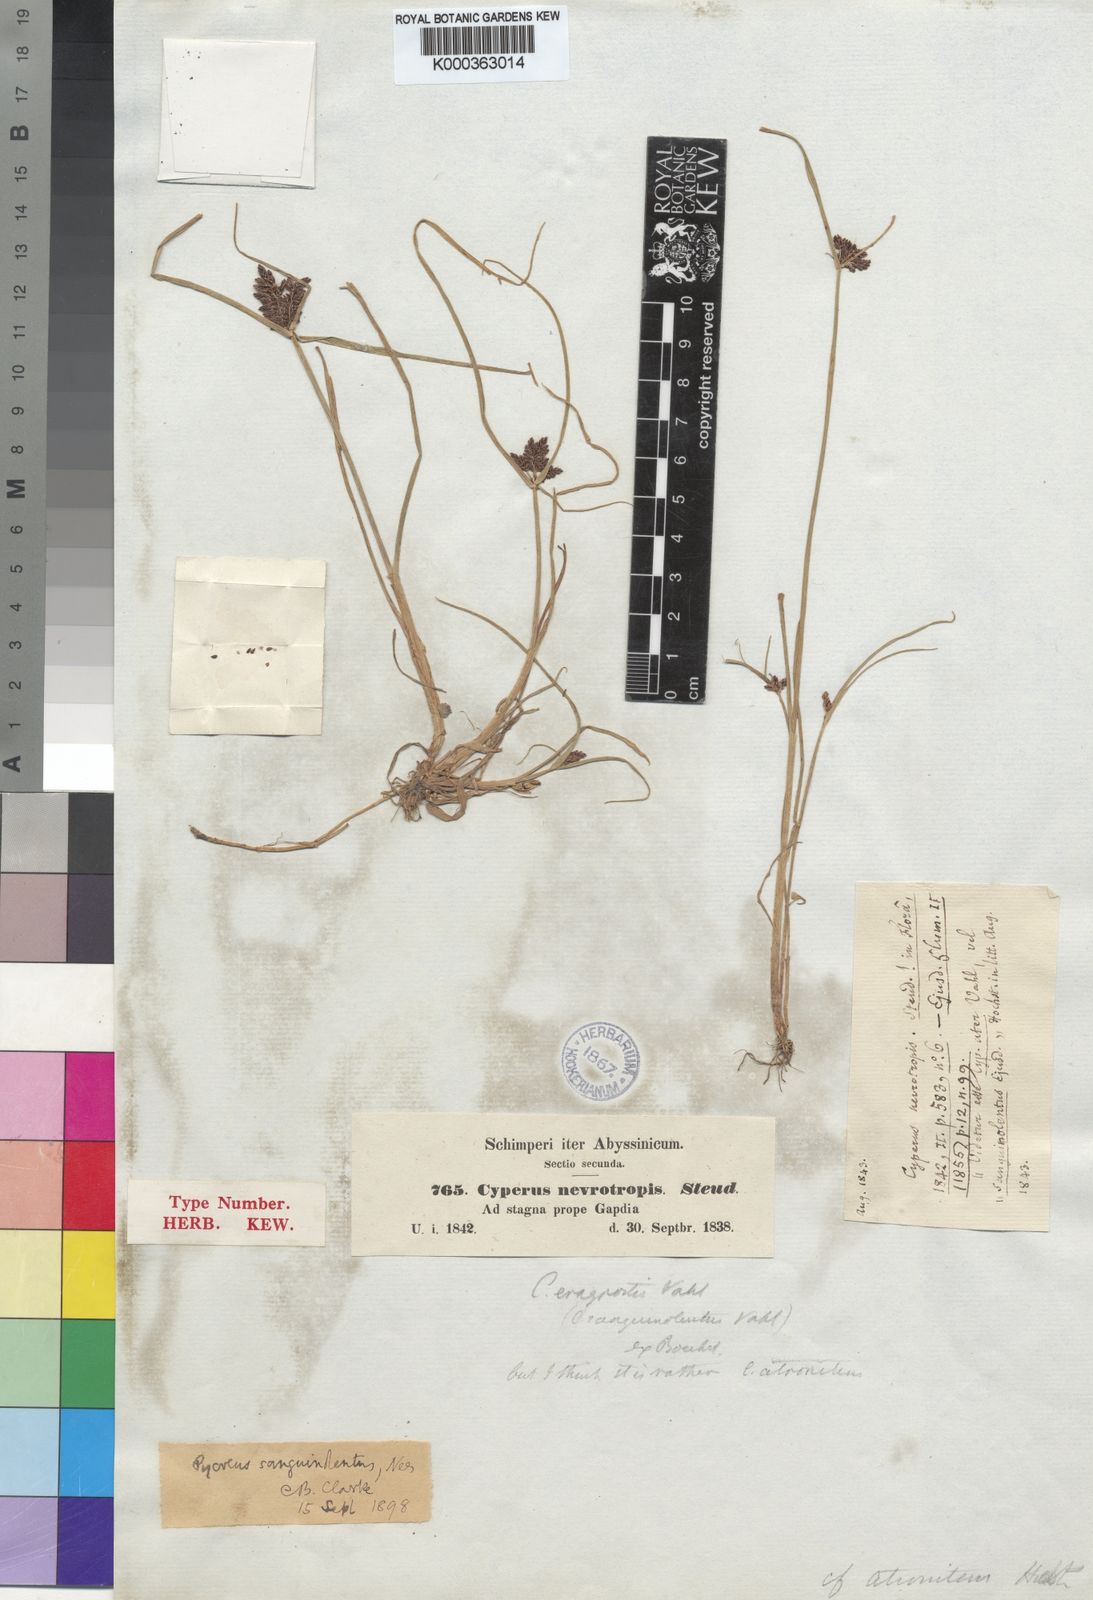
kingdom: Plantae
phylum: Tracheophyta
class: Liliopsida
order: Poales
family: Cyperaceae
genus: Cyperus
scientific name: Cyperus sanguinolentus
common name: Purpleglume flatsedge
